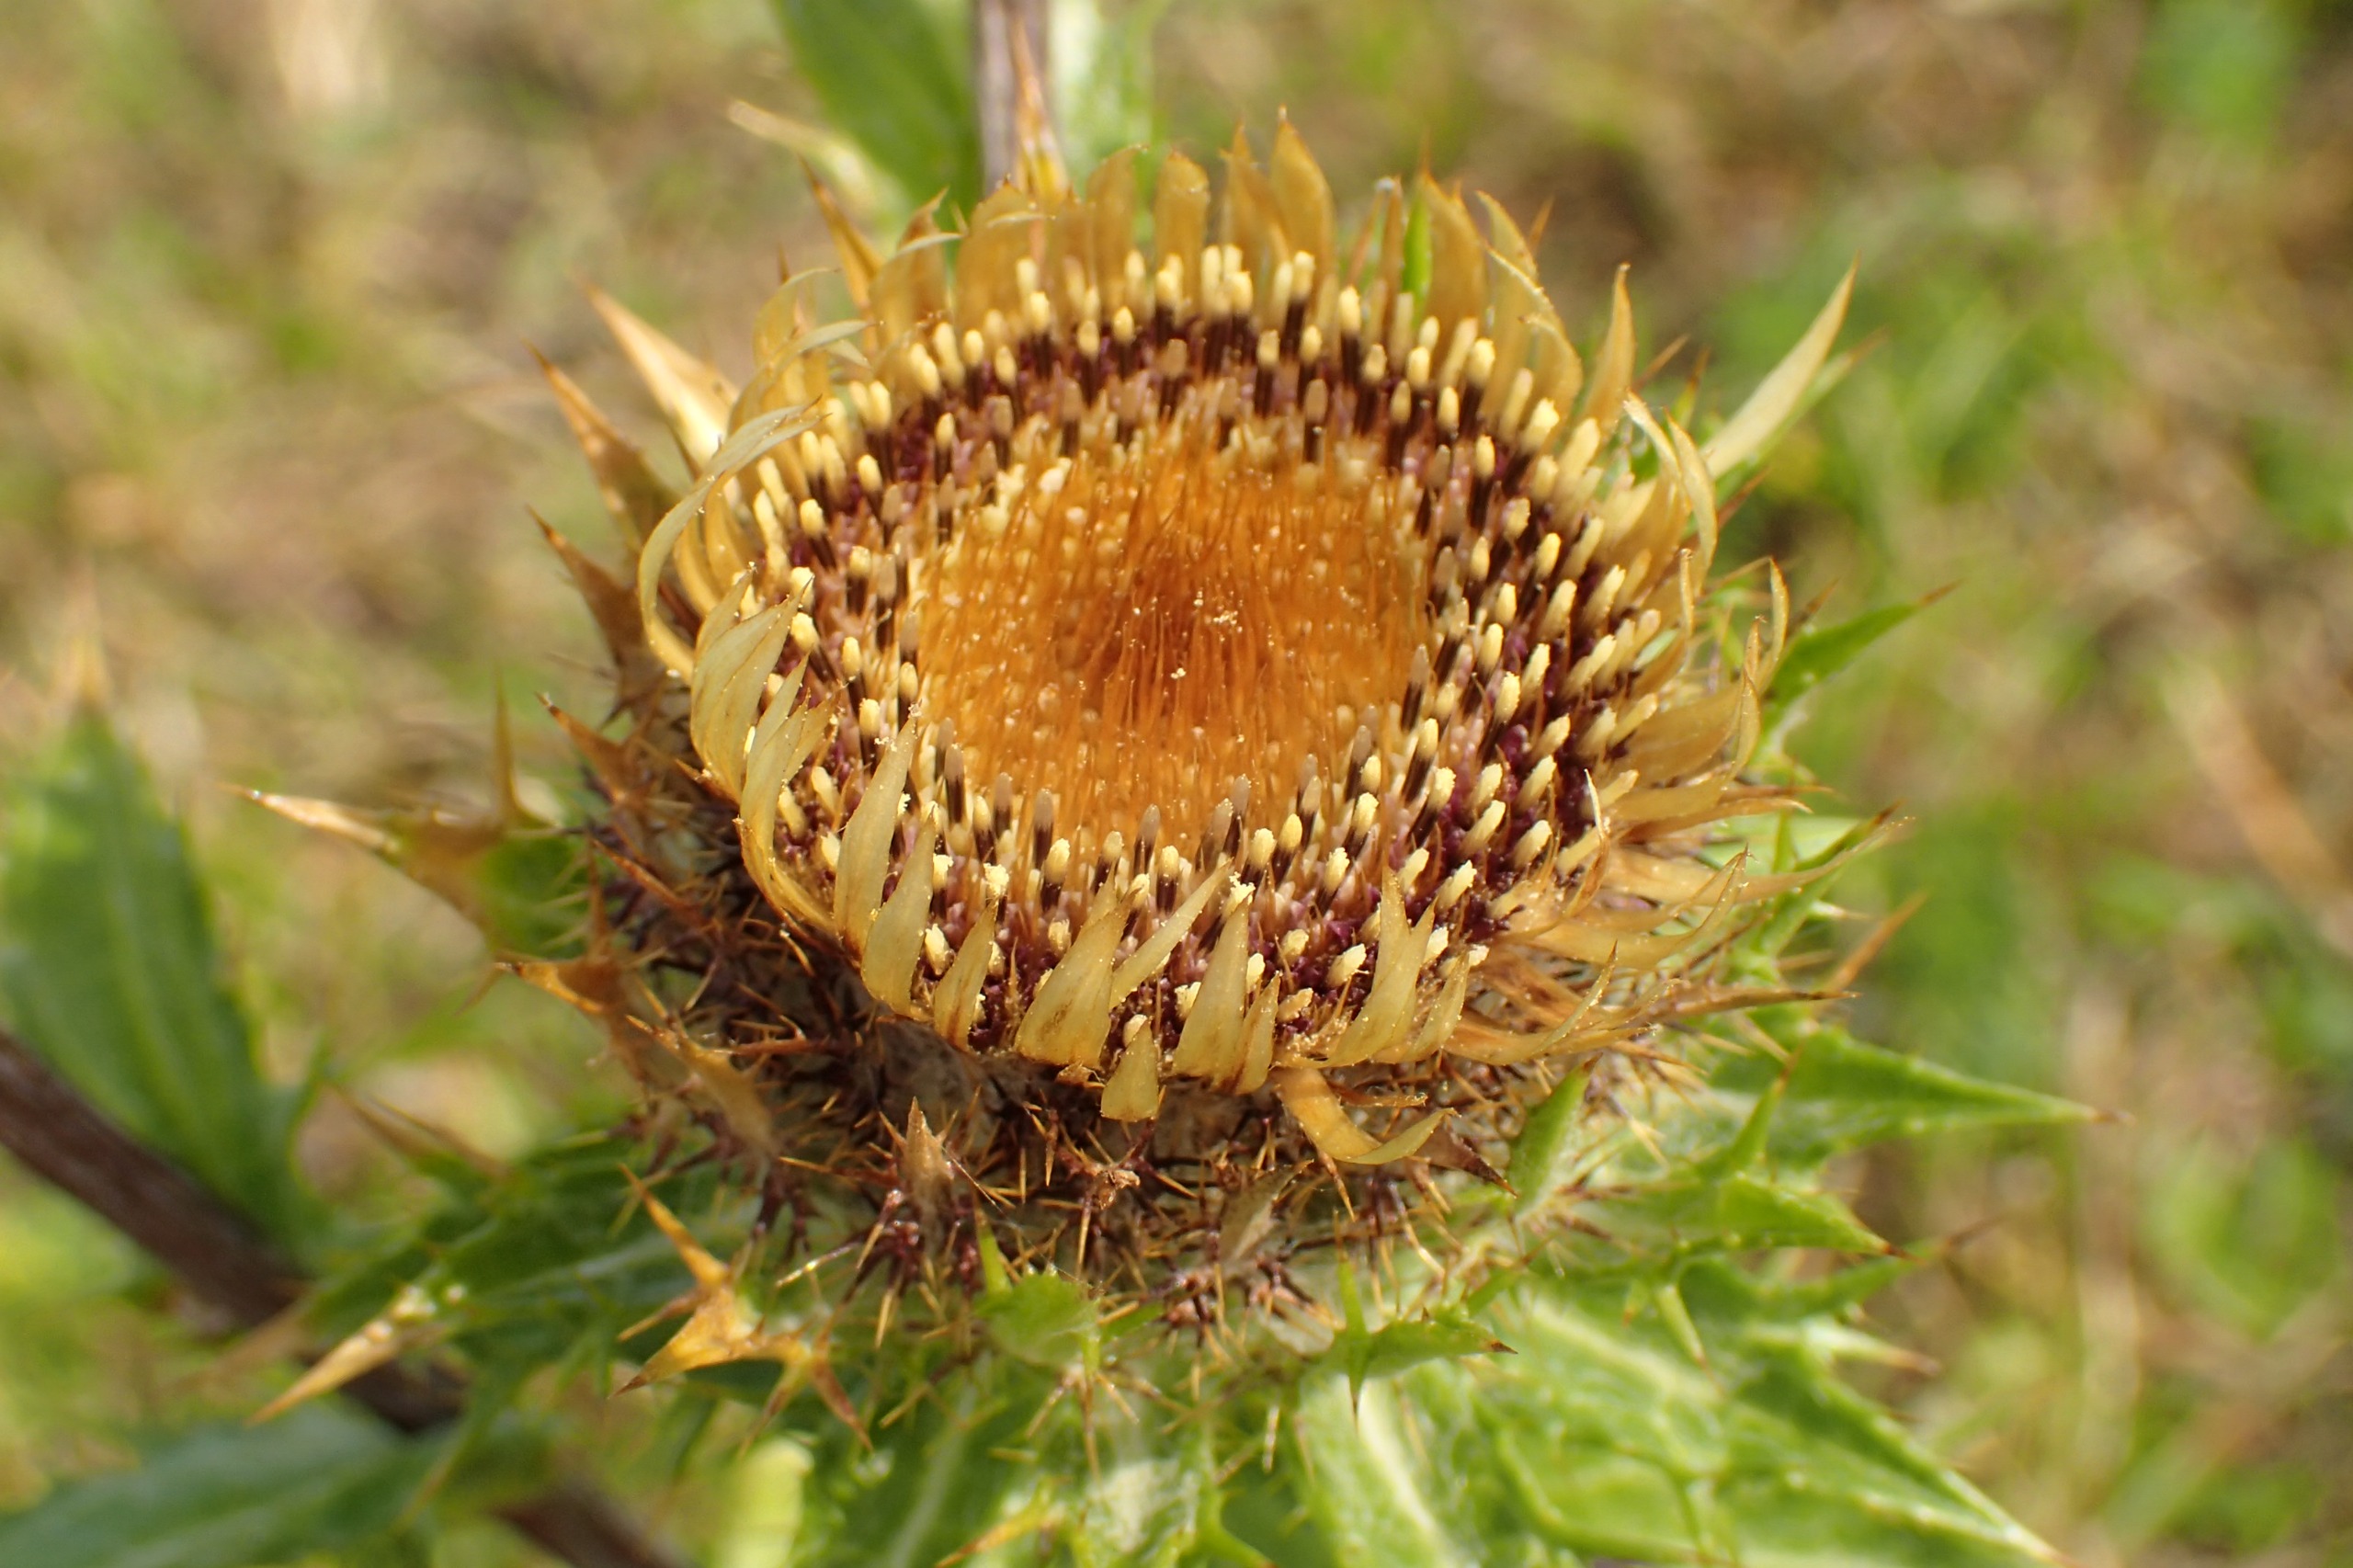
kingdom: Plantae
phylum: Tracheophyta
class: Magnoliopsida
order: Asterales
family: Asteraceae
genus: Carlina
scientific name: Carlina vulgaris
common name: Bakketidsel
